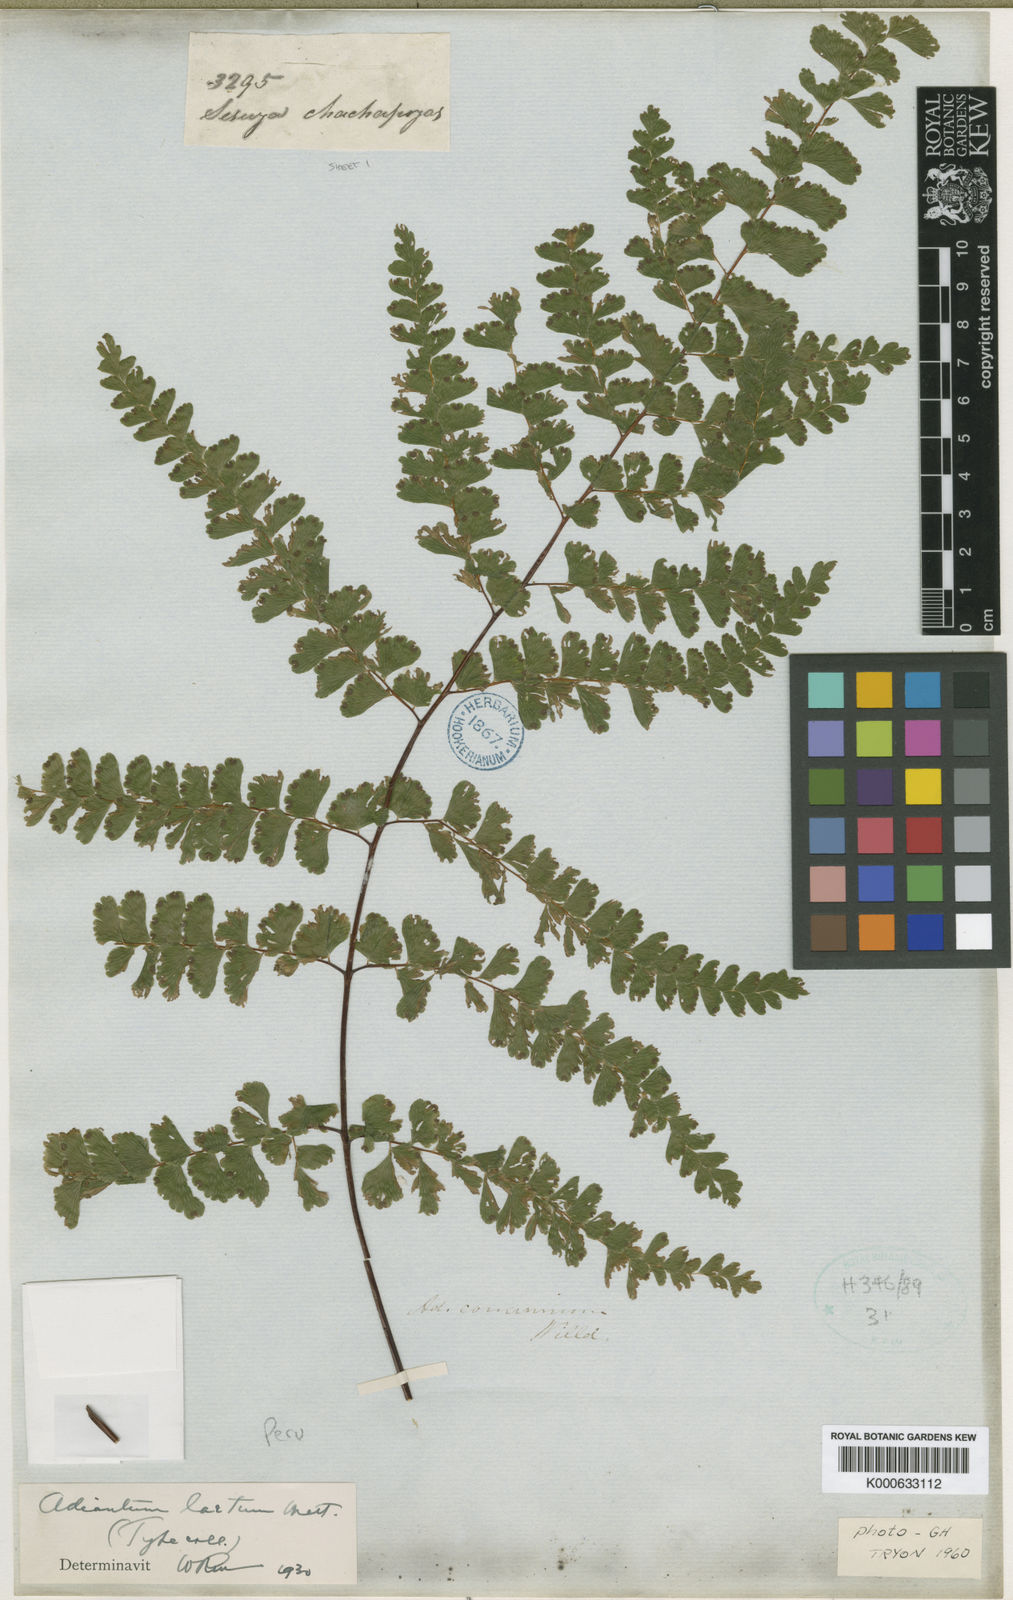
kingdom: Plantae
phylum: Tracheophyta
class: Polypodiopsida
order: Polypodiales
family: Pteridaceae
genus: Adiantum
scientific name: Adiantum
